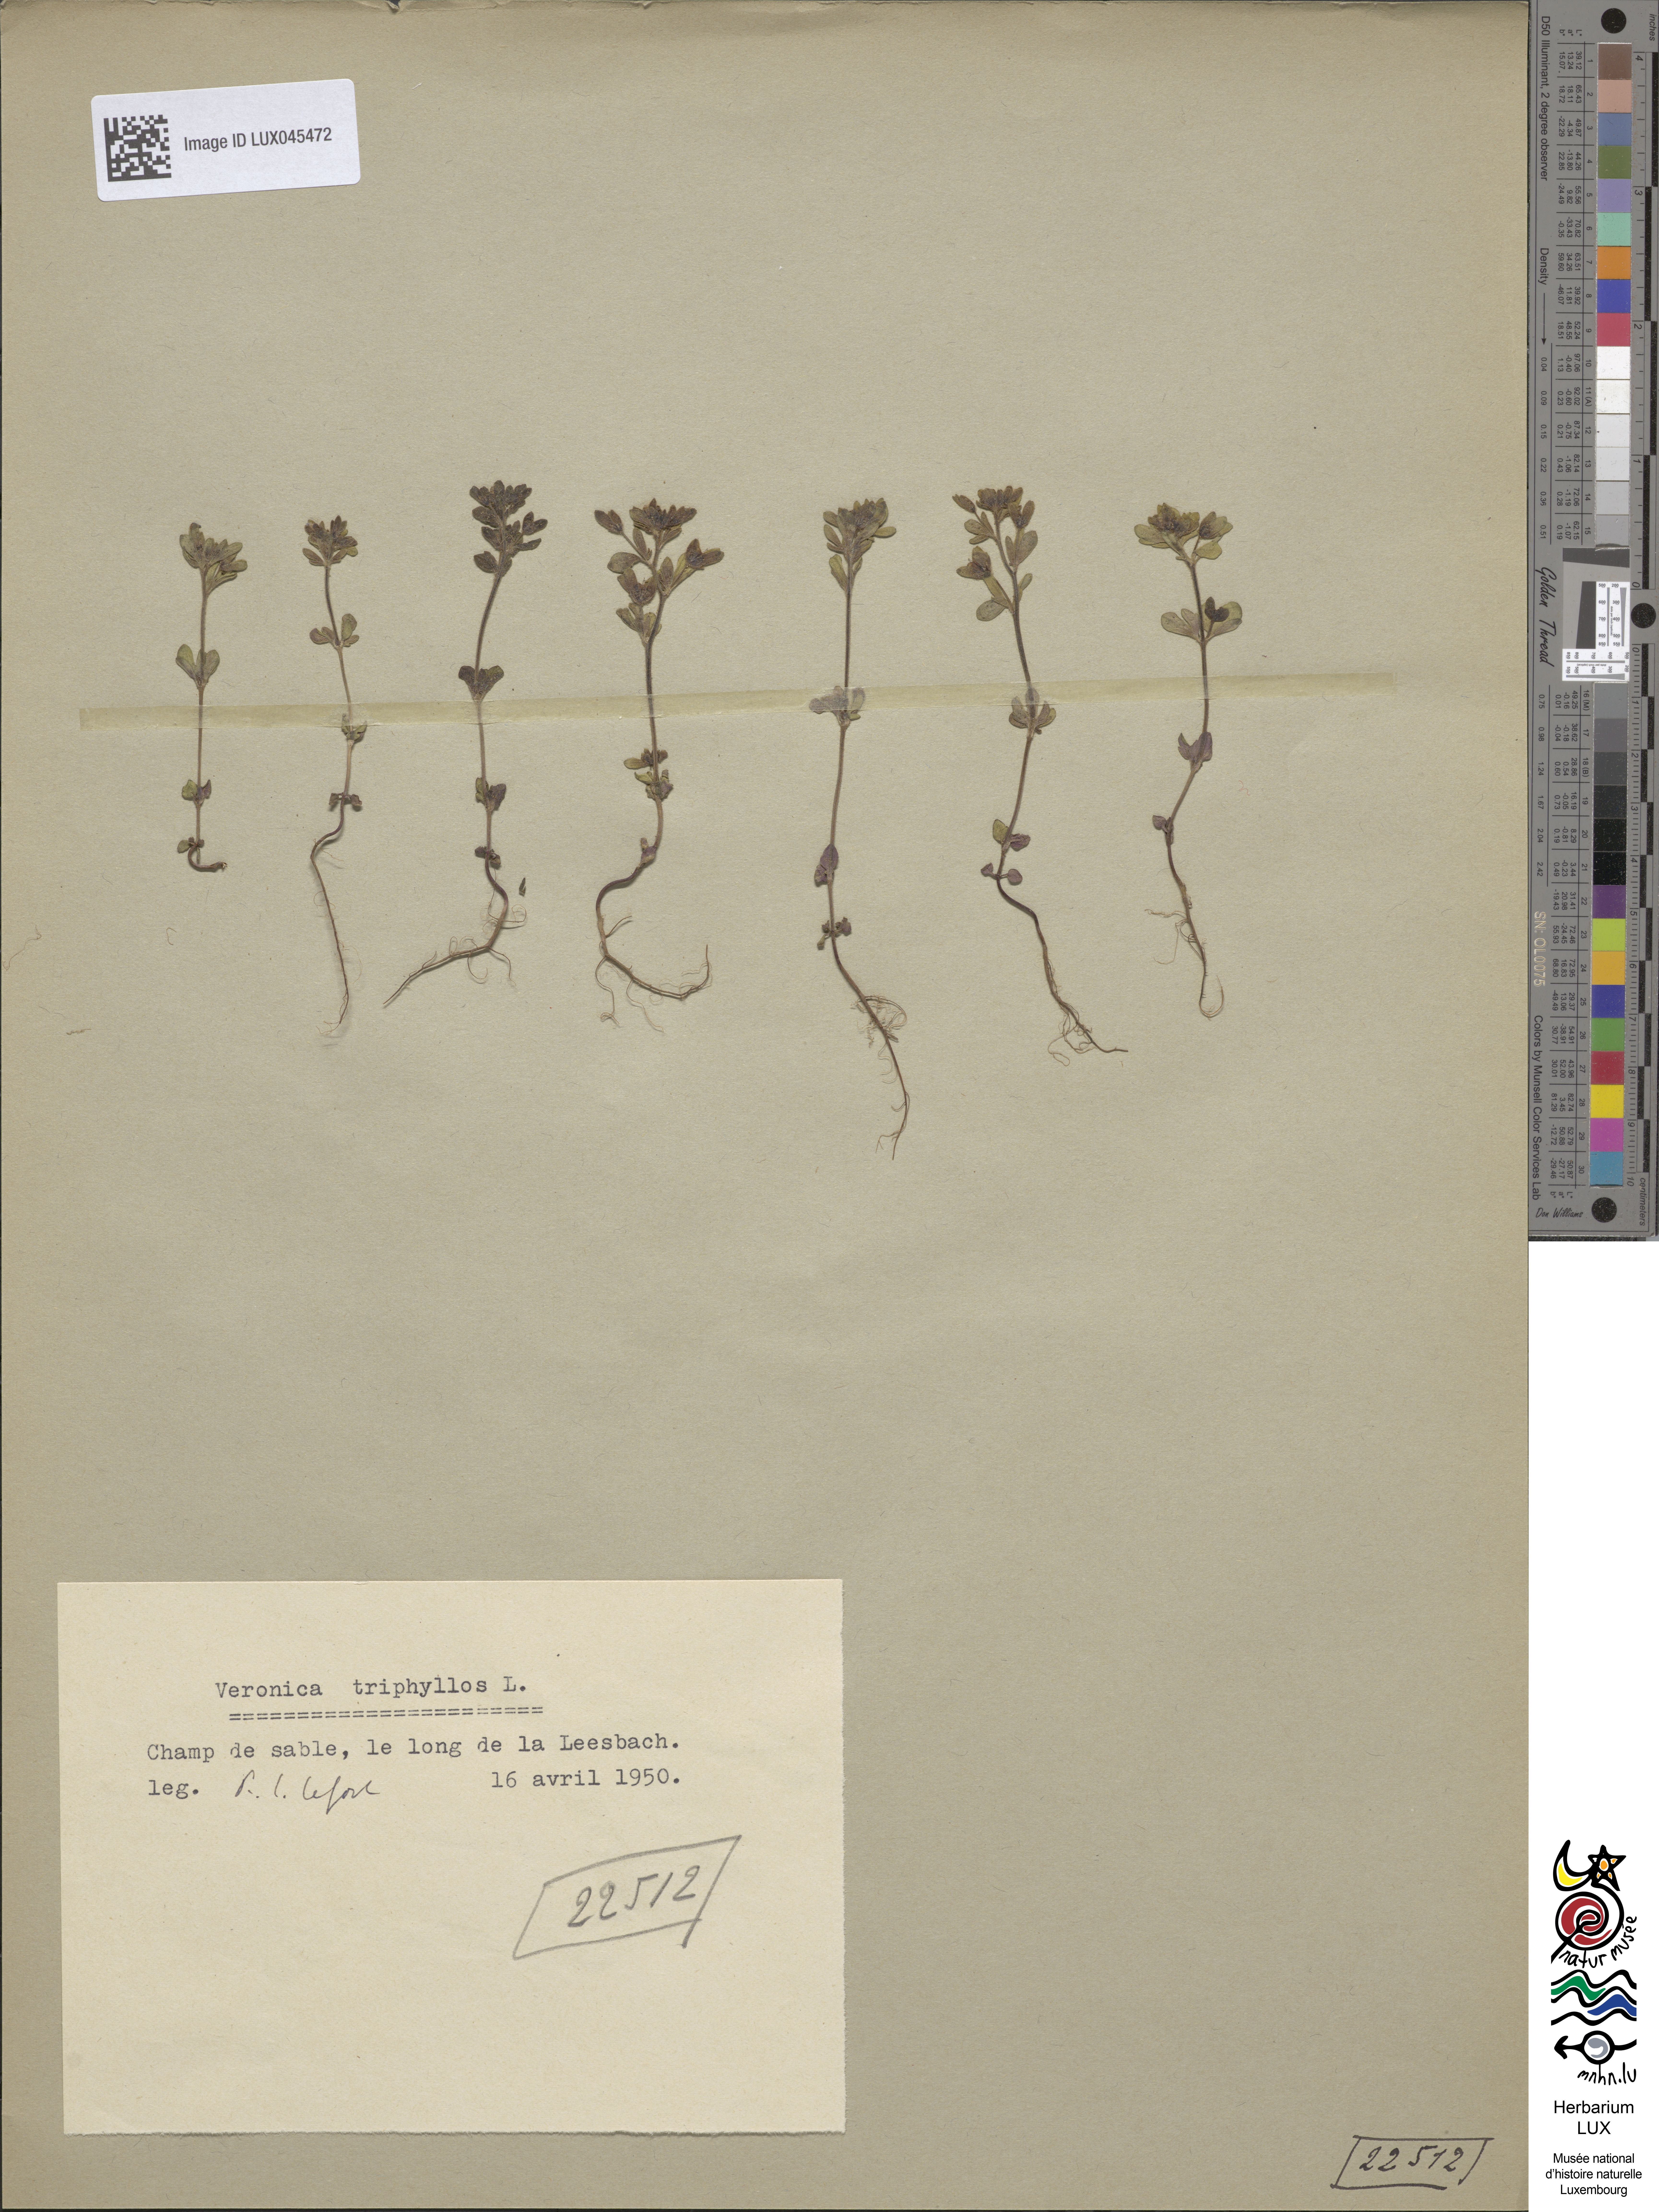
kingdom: Plantae
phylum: Tracheophyta
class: Magnoliopsida
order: Lamiales
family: Plantaginaceae
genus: Veronica
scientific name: Veronica triphyllos
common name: Fingered speedwell
